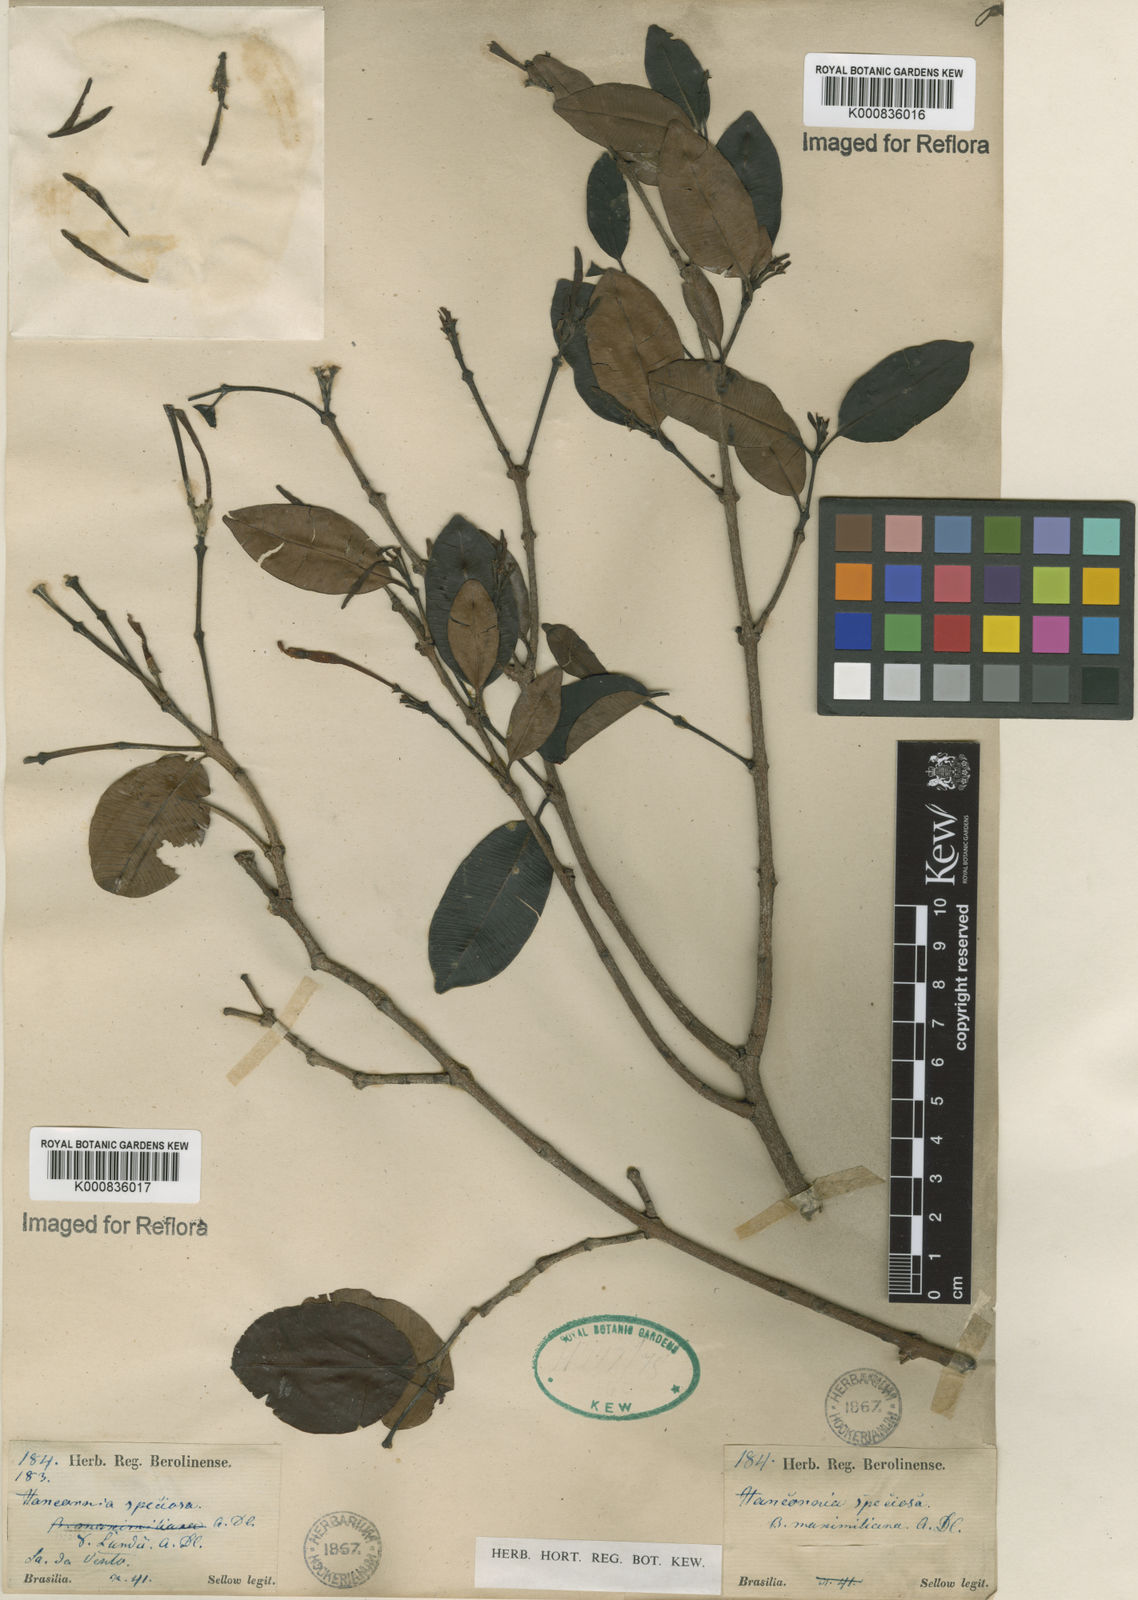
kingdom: Plantae
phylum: Tracheophyta
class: Magnoliopsida
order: Gentianales
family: Apocynaceae
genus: Hancornia
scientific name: Hancornia speciosa
